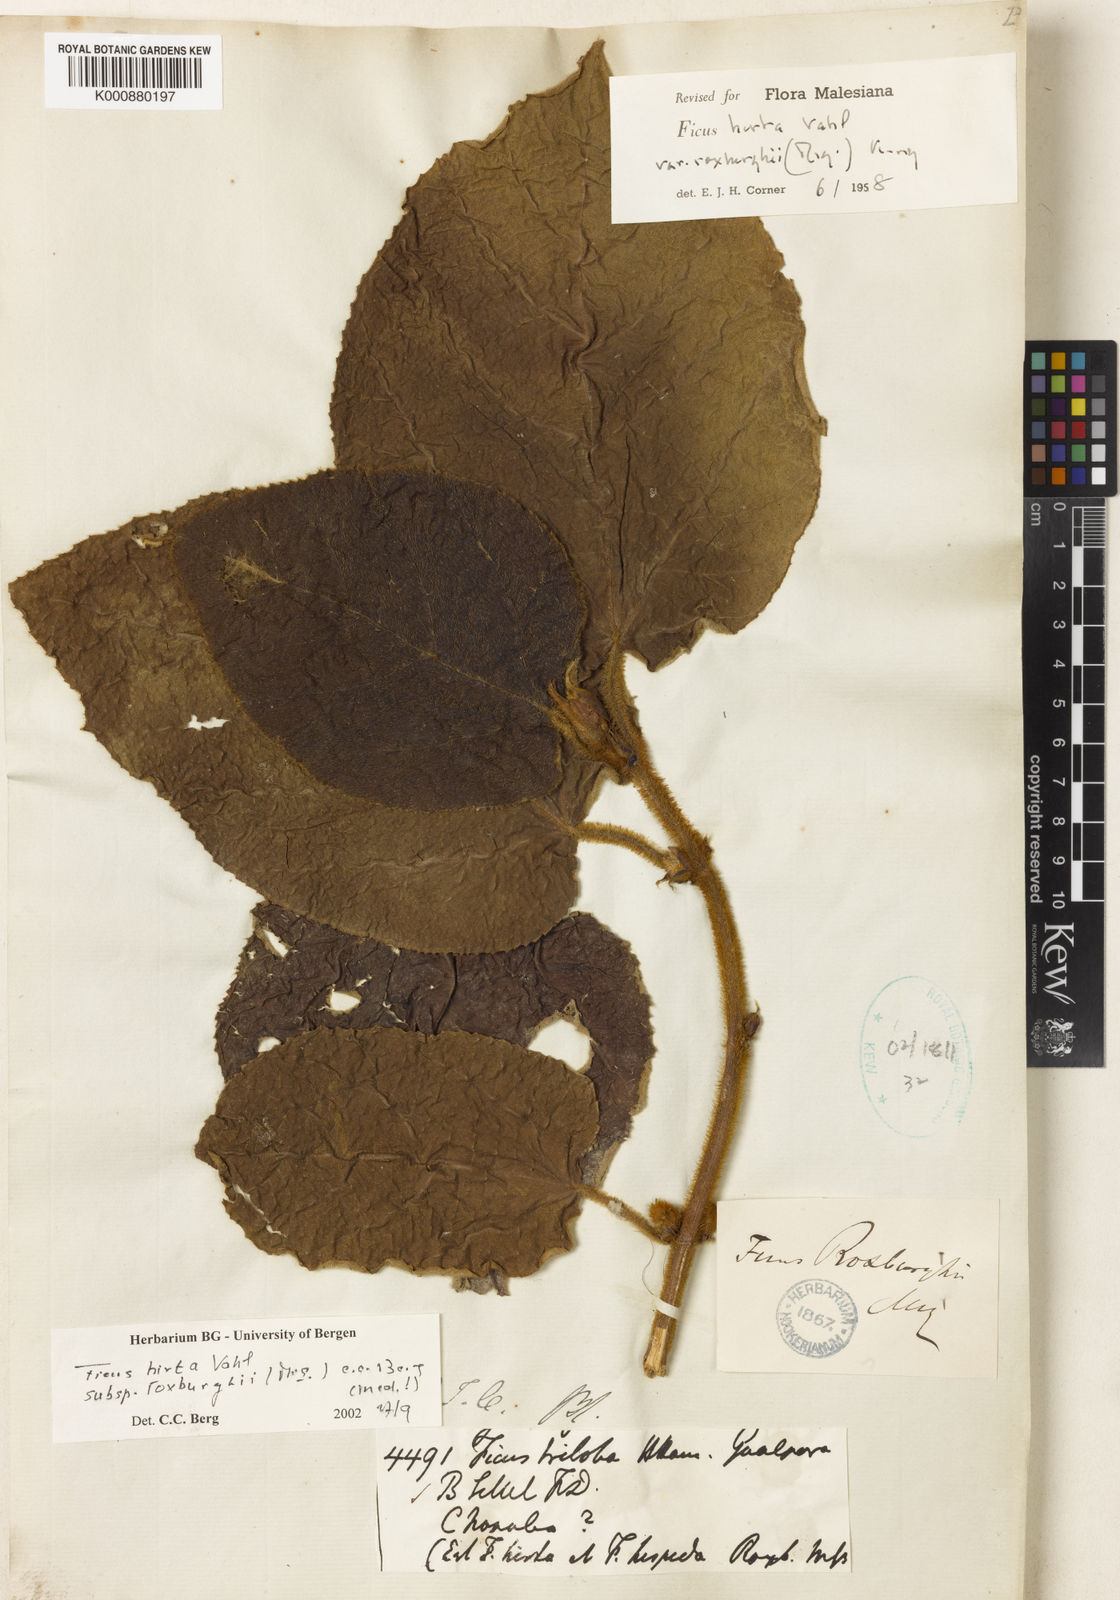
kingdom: Plantae
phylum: Tracheophyta
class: Magnoliopsida
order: Rosales
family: Moraceae
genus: Ficus
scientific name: Ficus triloba
